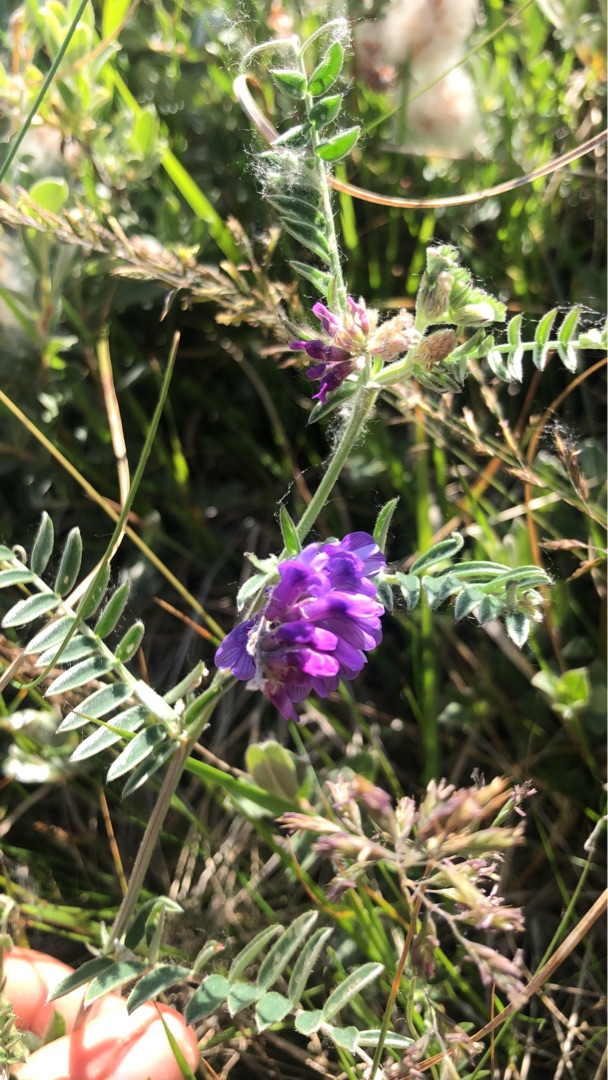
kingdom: Plantae
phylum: Tracheophyta
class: Magnoliopsida
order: Fabales
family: Fabaceae
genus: Vicia
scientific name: Vicia cracca
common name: Muse-vikke
